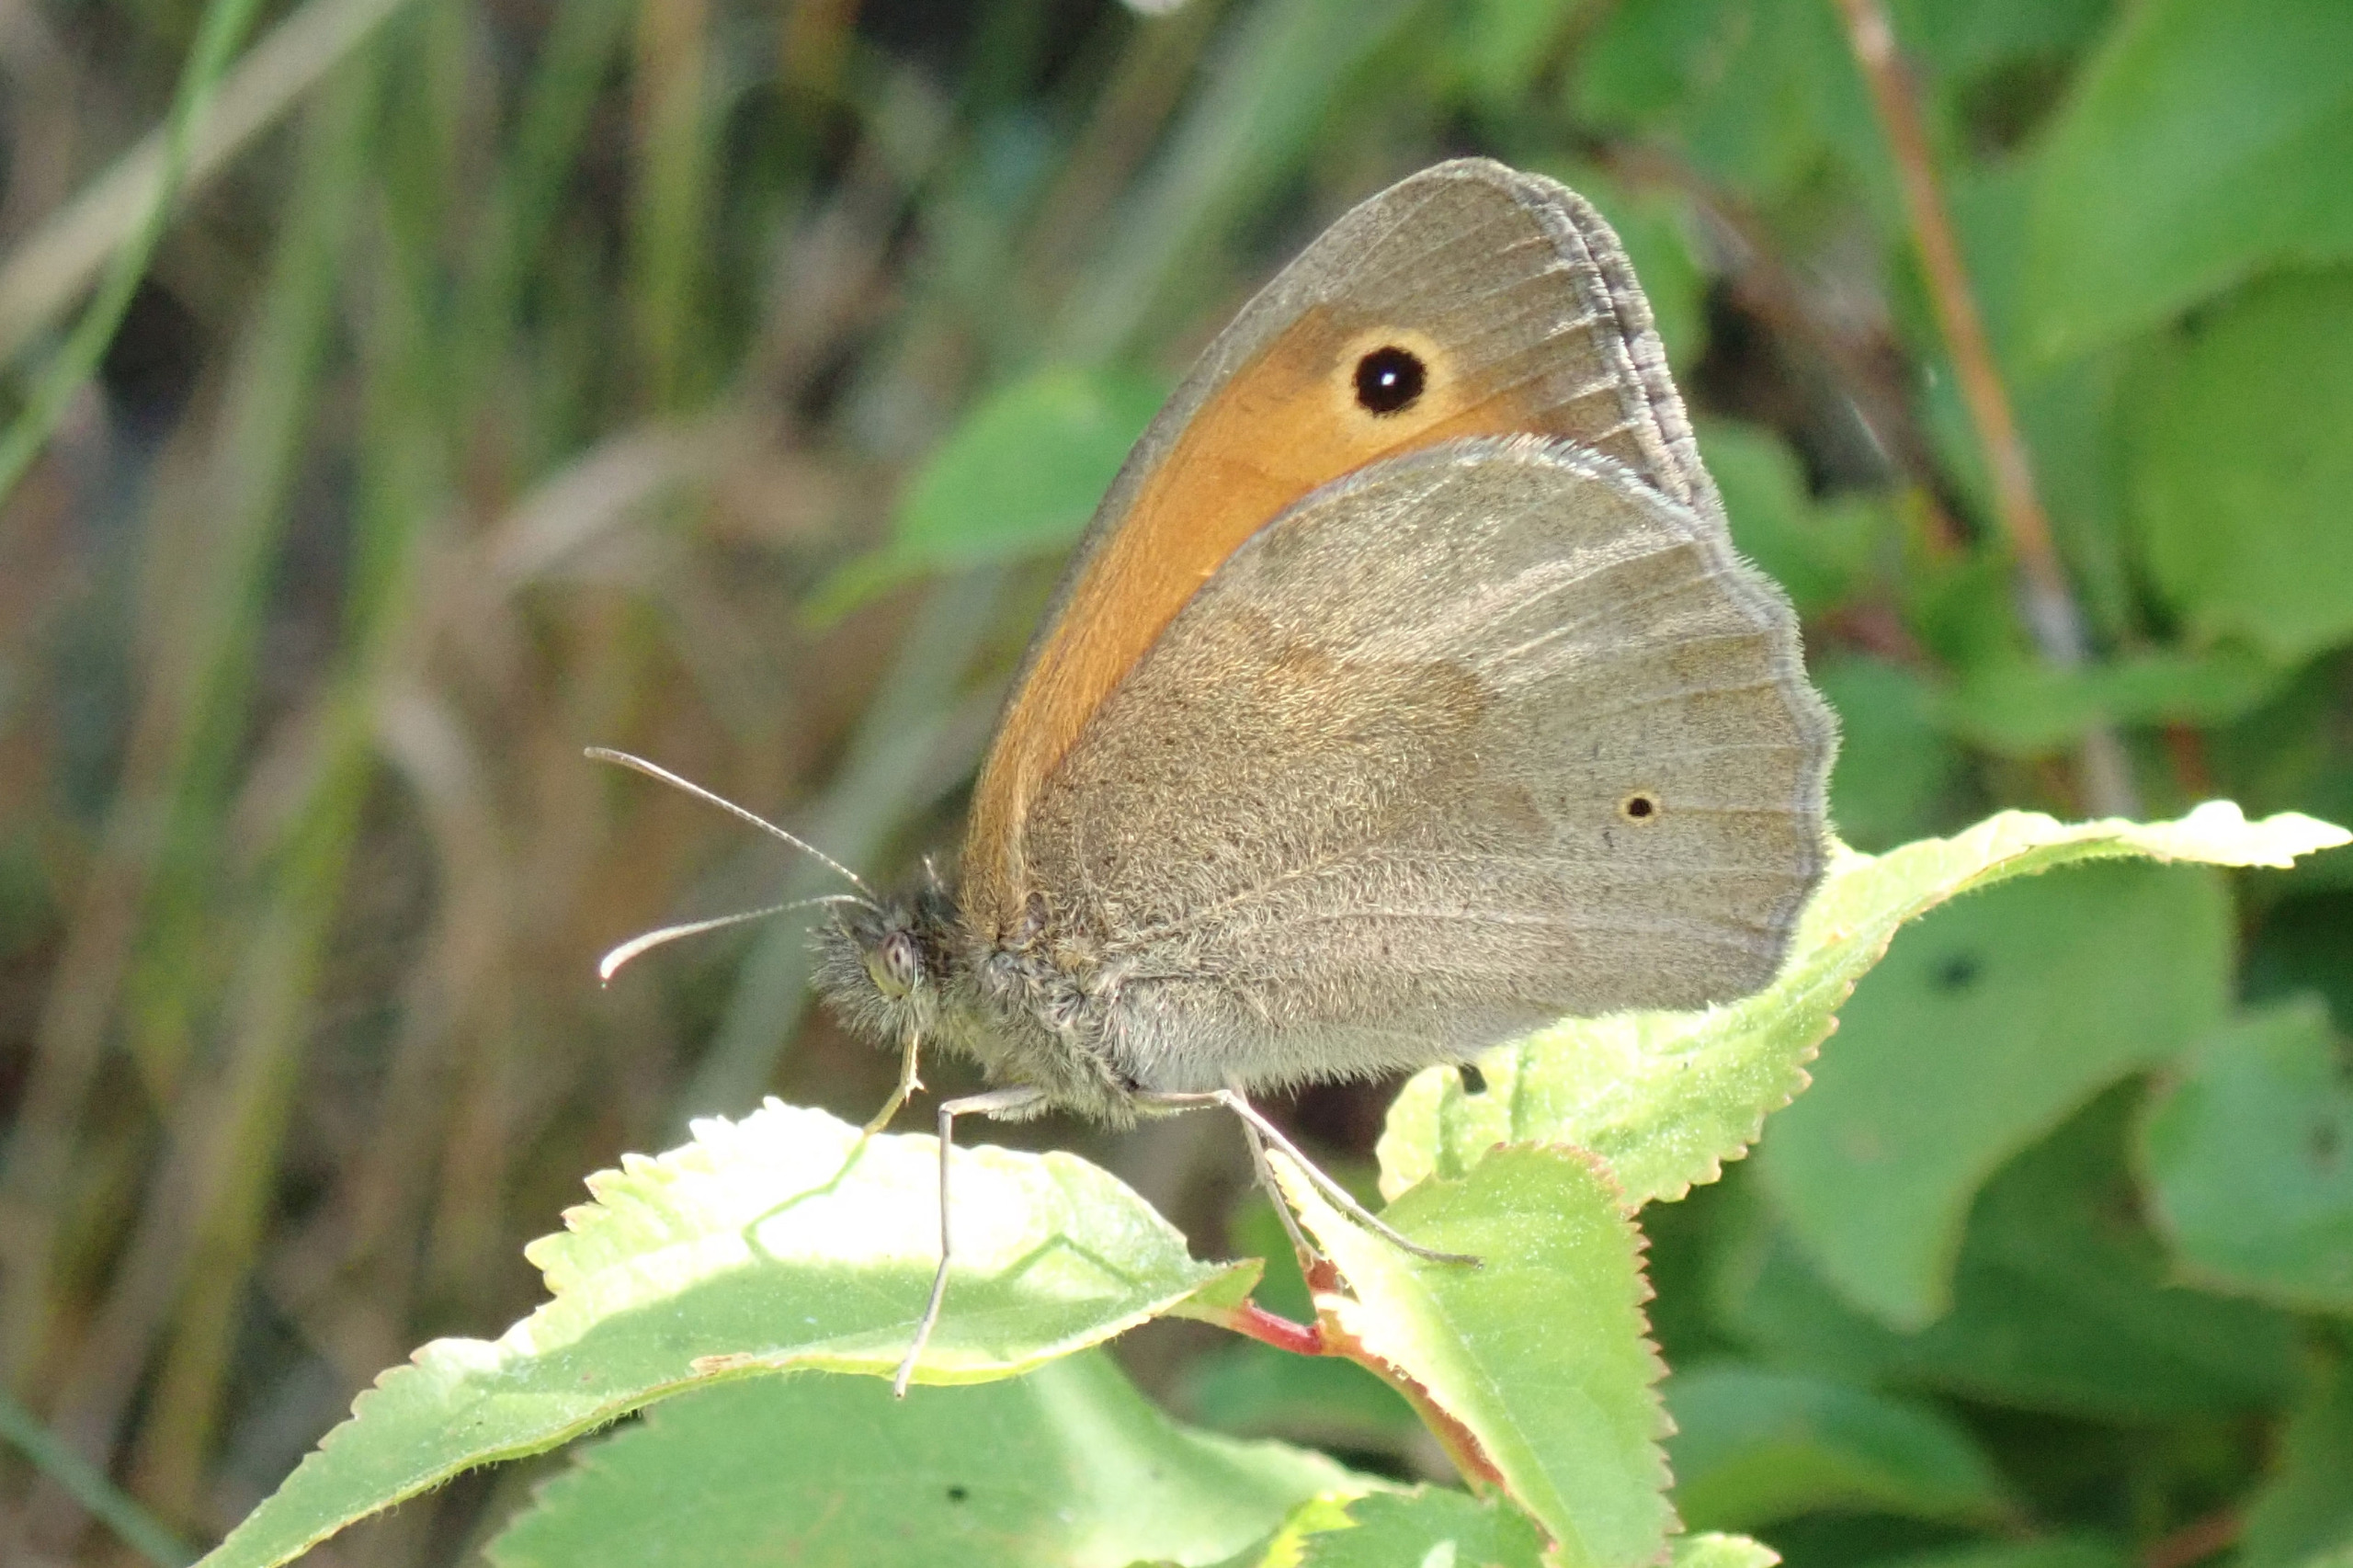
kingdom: Animalia
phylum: Arthropoda
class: Insecta
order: Lepidoptera
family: Nymphalidae
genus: Maniola
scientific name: Maniola jurtina
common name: Græsrandøje
